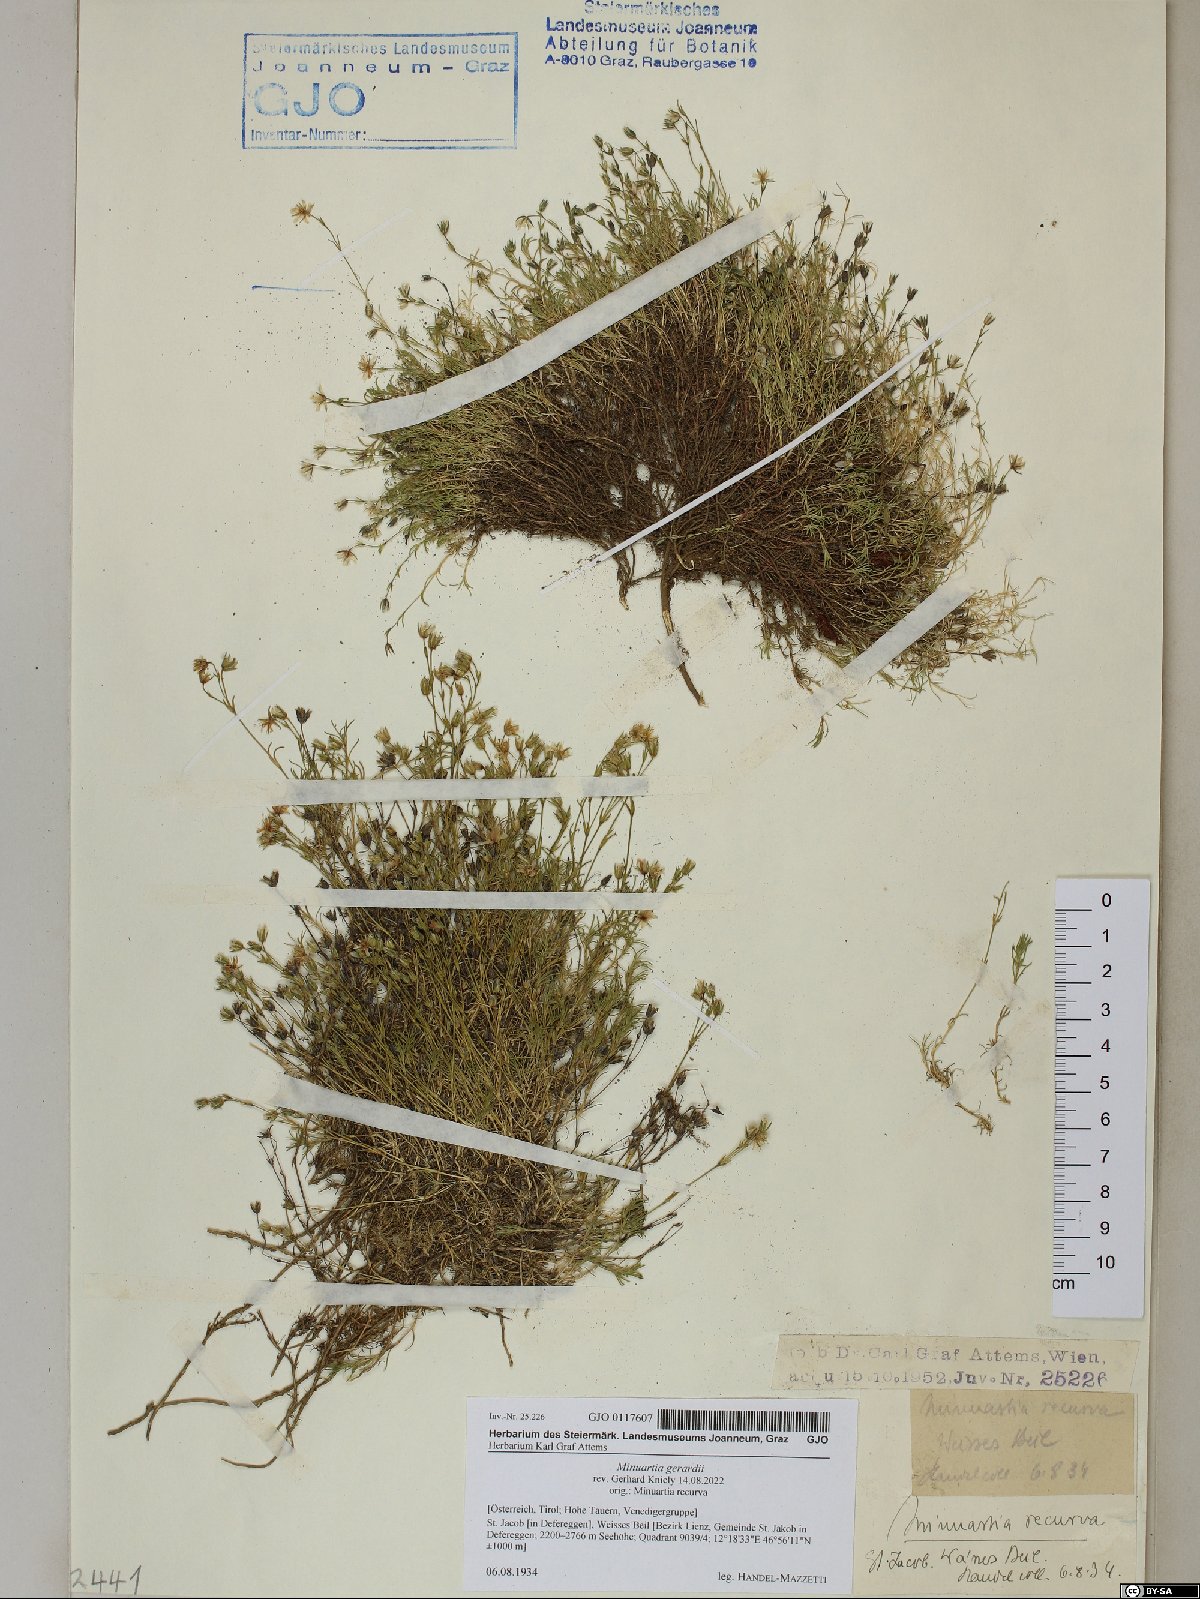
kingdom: Plantae
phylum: Tracheophyta
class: Magnoliopsida
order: Caryophyllales
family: Caryophyllaceae
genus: Sabulina
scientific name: Sabulina verna
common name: Spring sandwort
